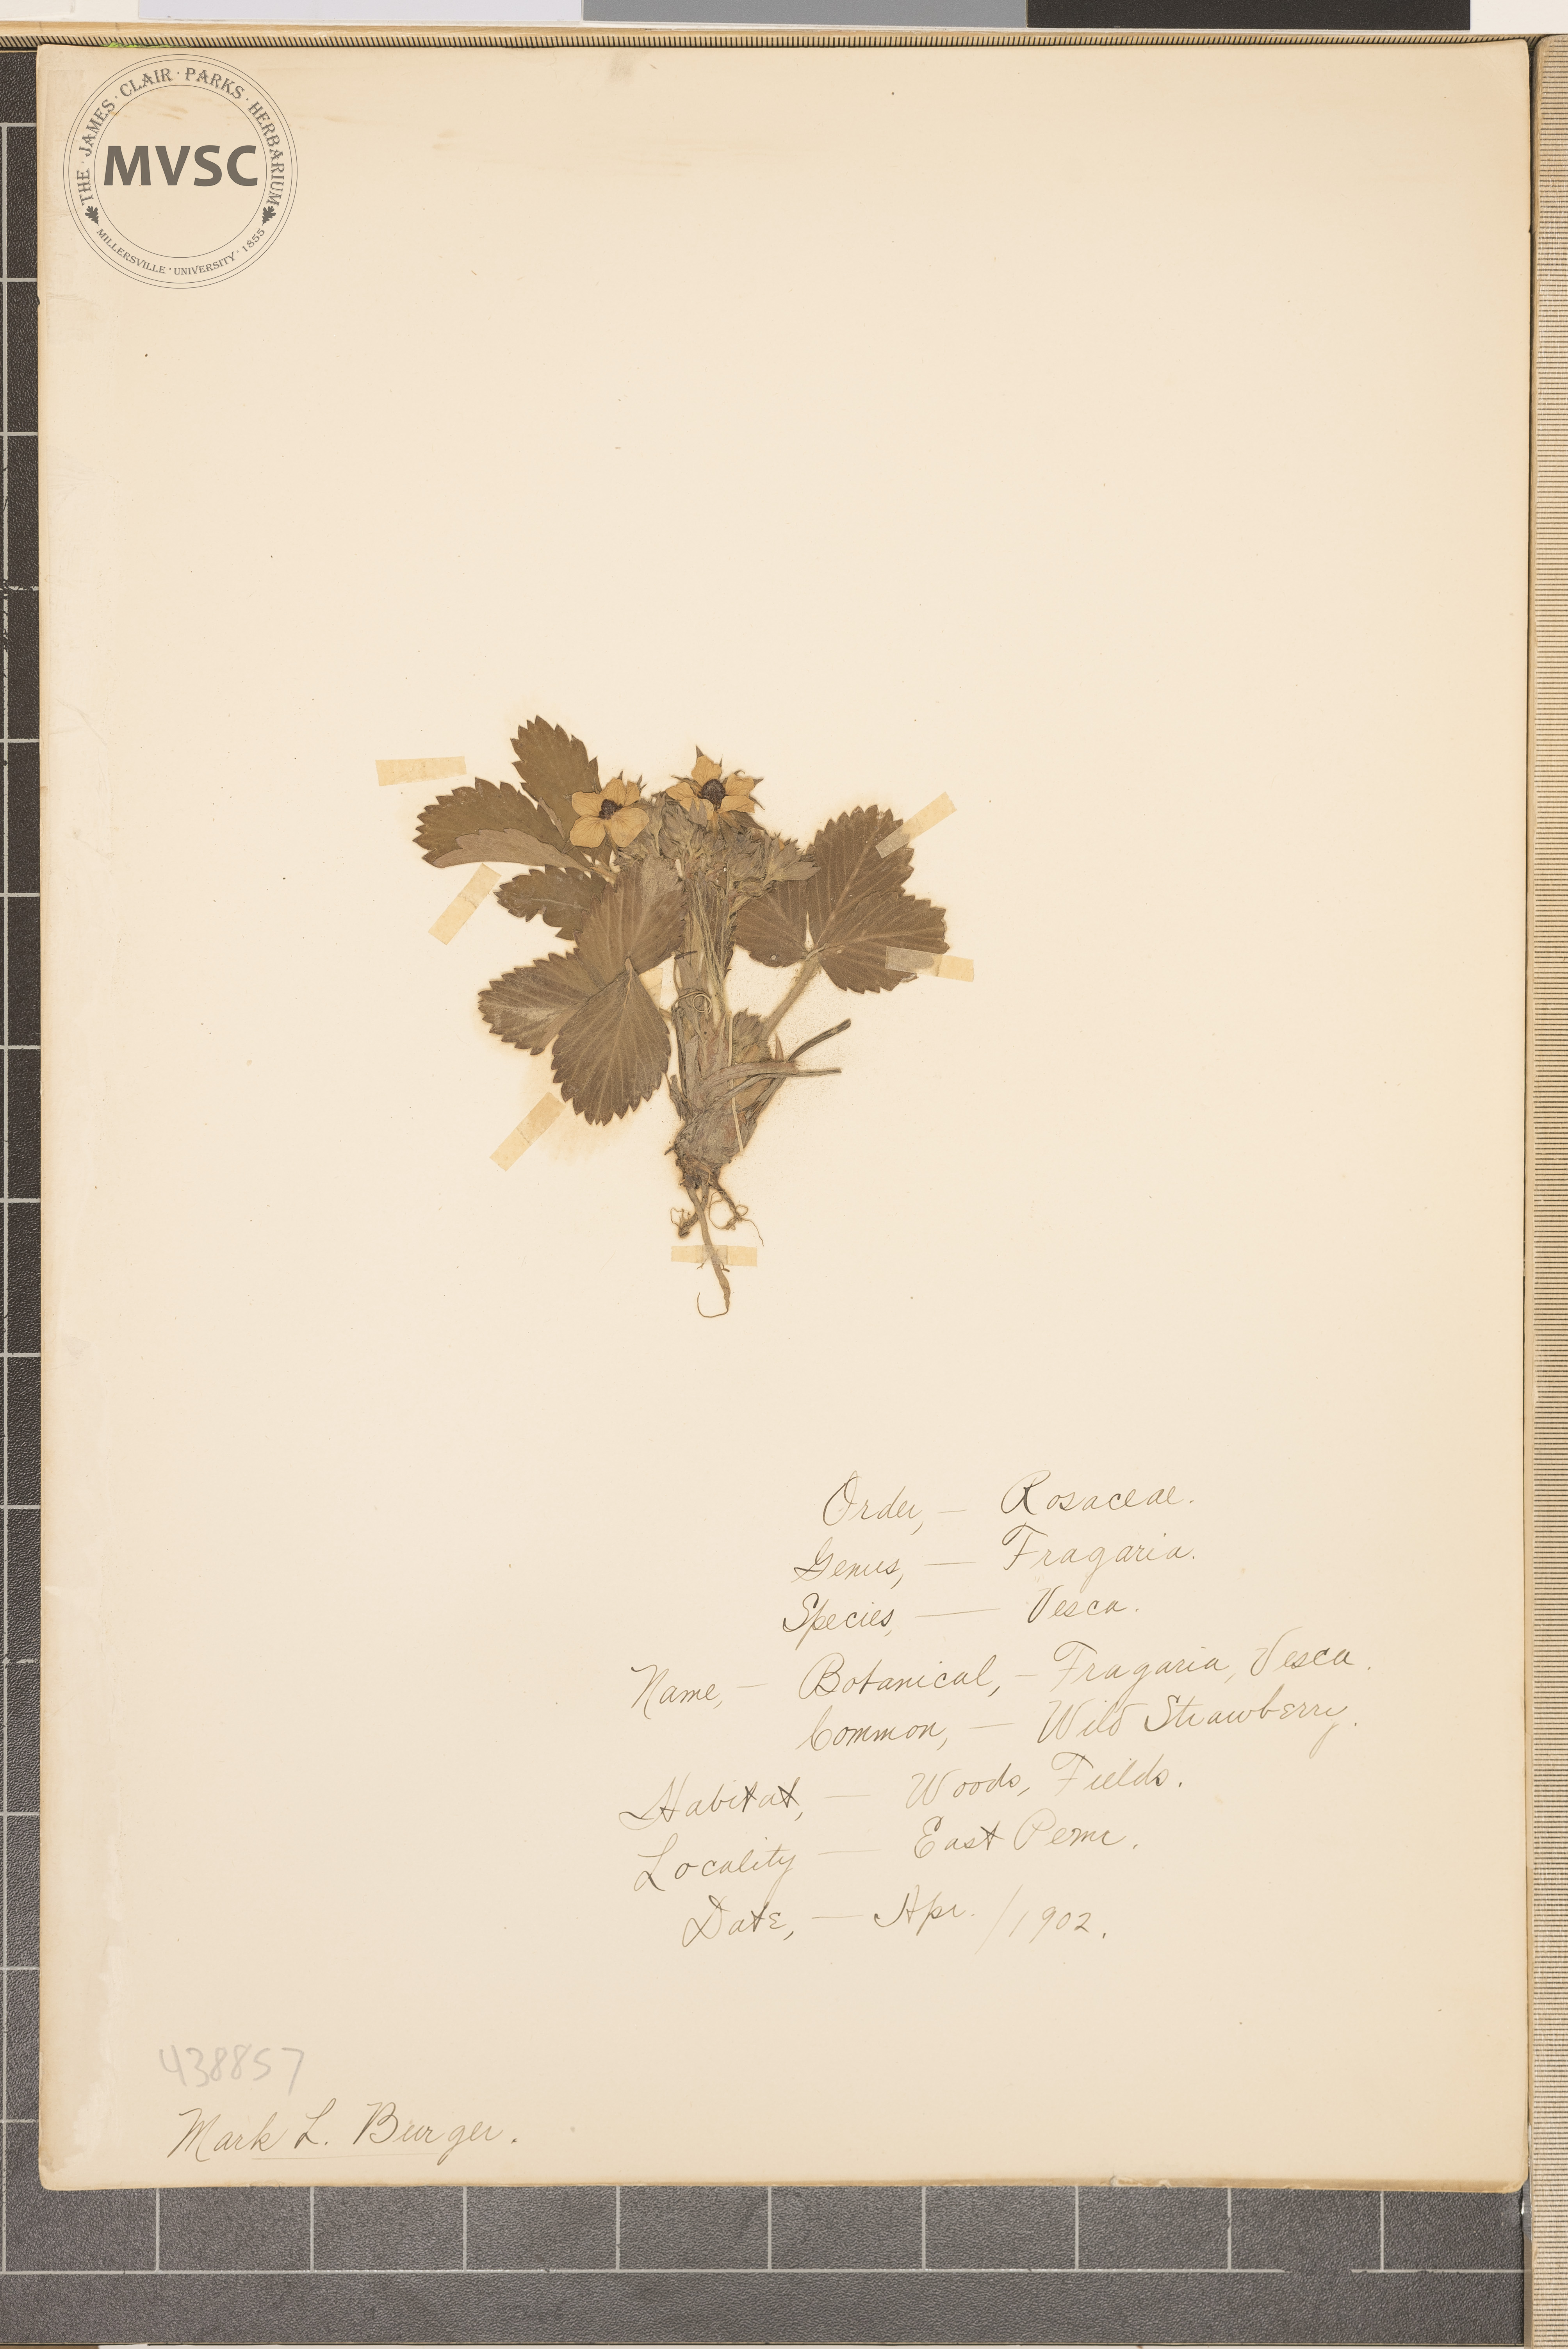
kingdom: Plantae
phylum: Tracheophyta
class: Magnoliopsida
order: Rosales
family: Rosaceae
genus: Fragaria
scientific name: Fragaria vesca
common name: Strawberry
